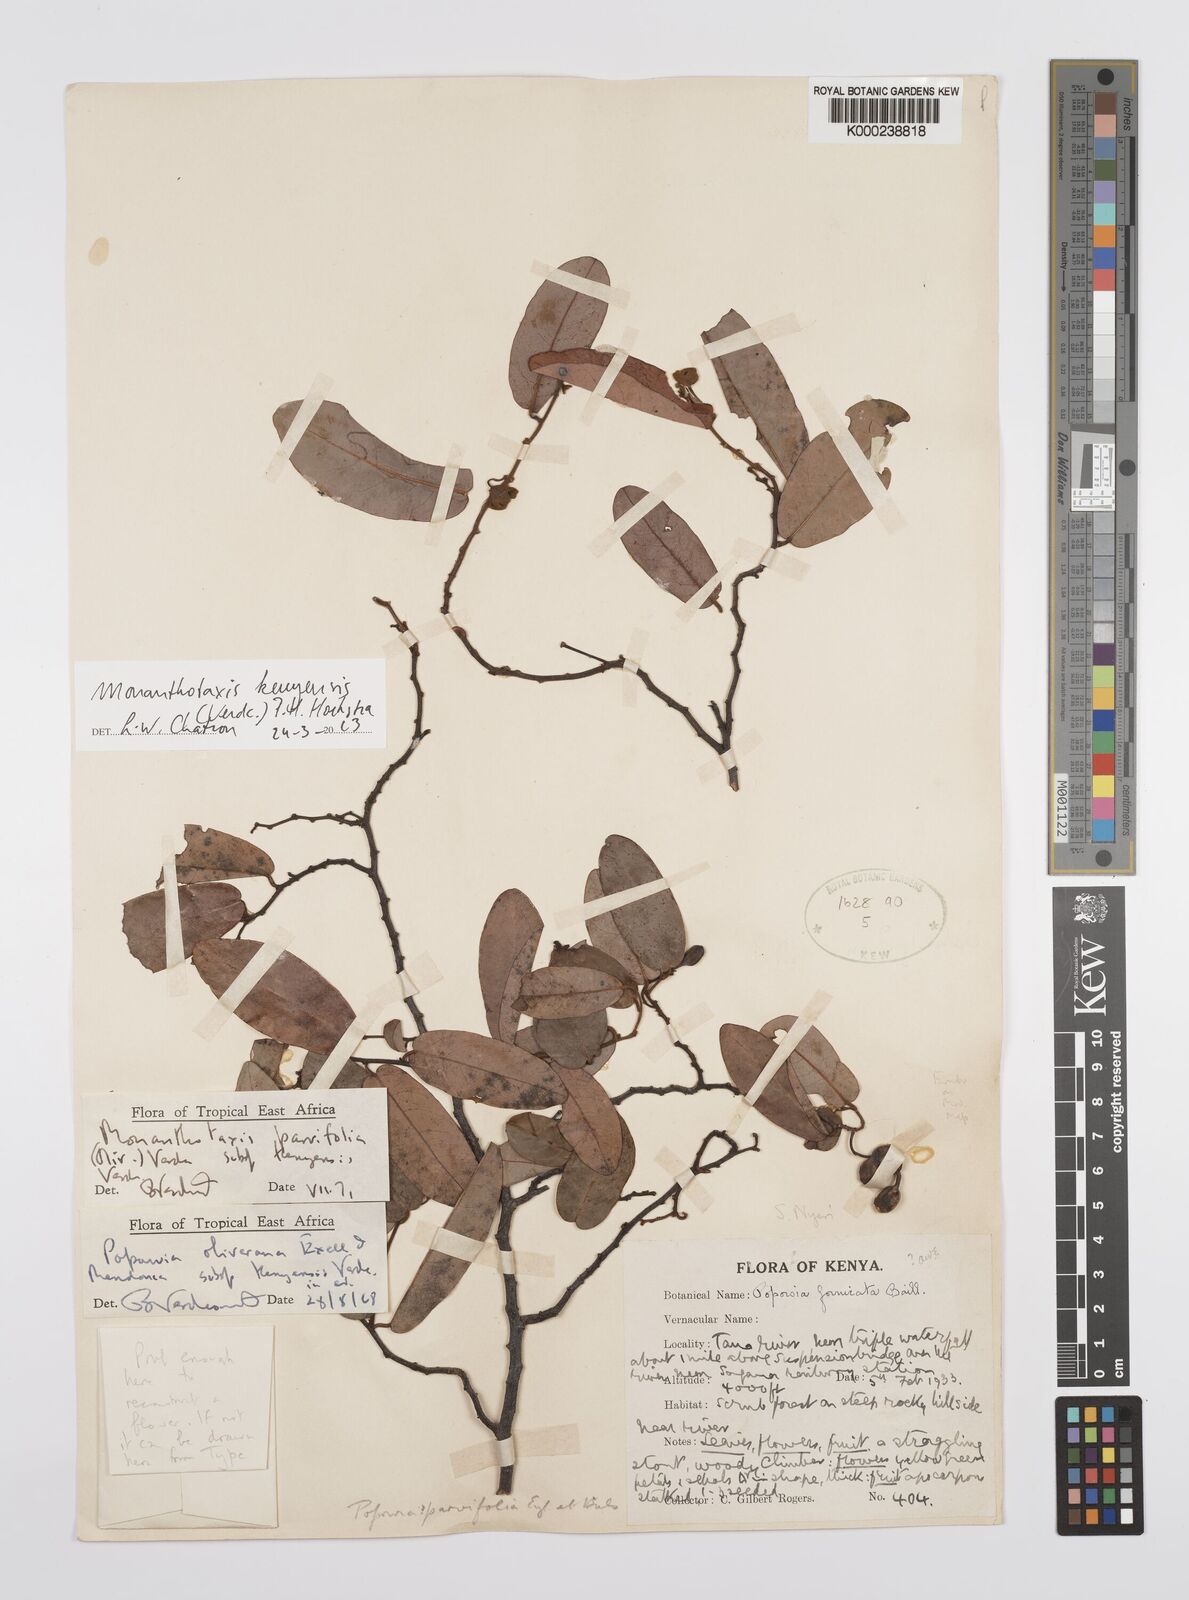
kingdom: Plantae
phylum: Tracheophyta
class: Magnoliopsida
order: Magnoliales
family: Annonaceae
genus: Monanthotaxis
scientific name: Monanthotaxis parvifolia
